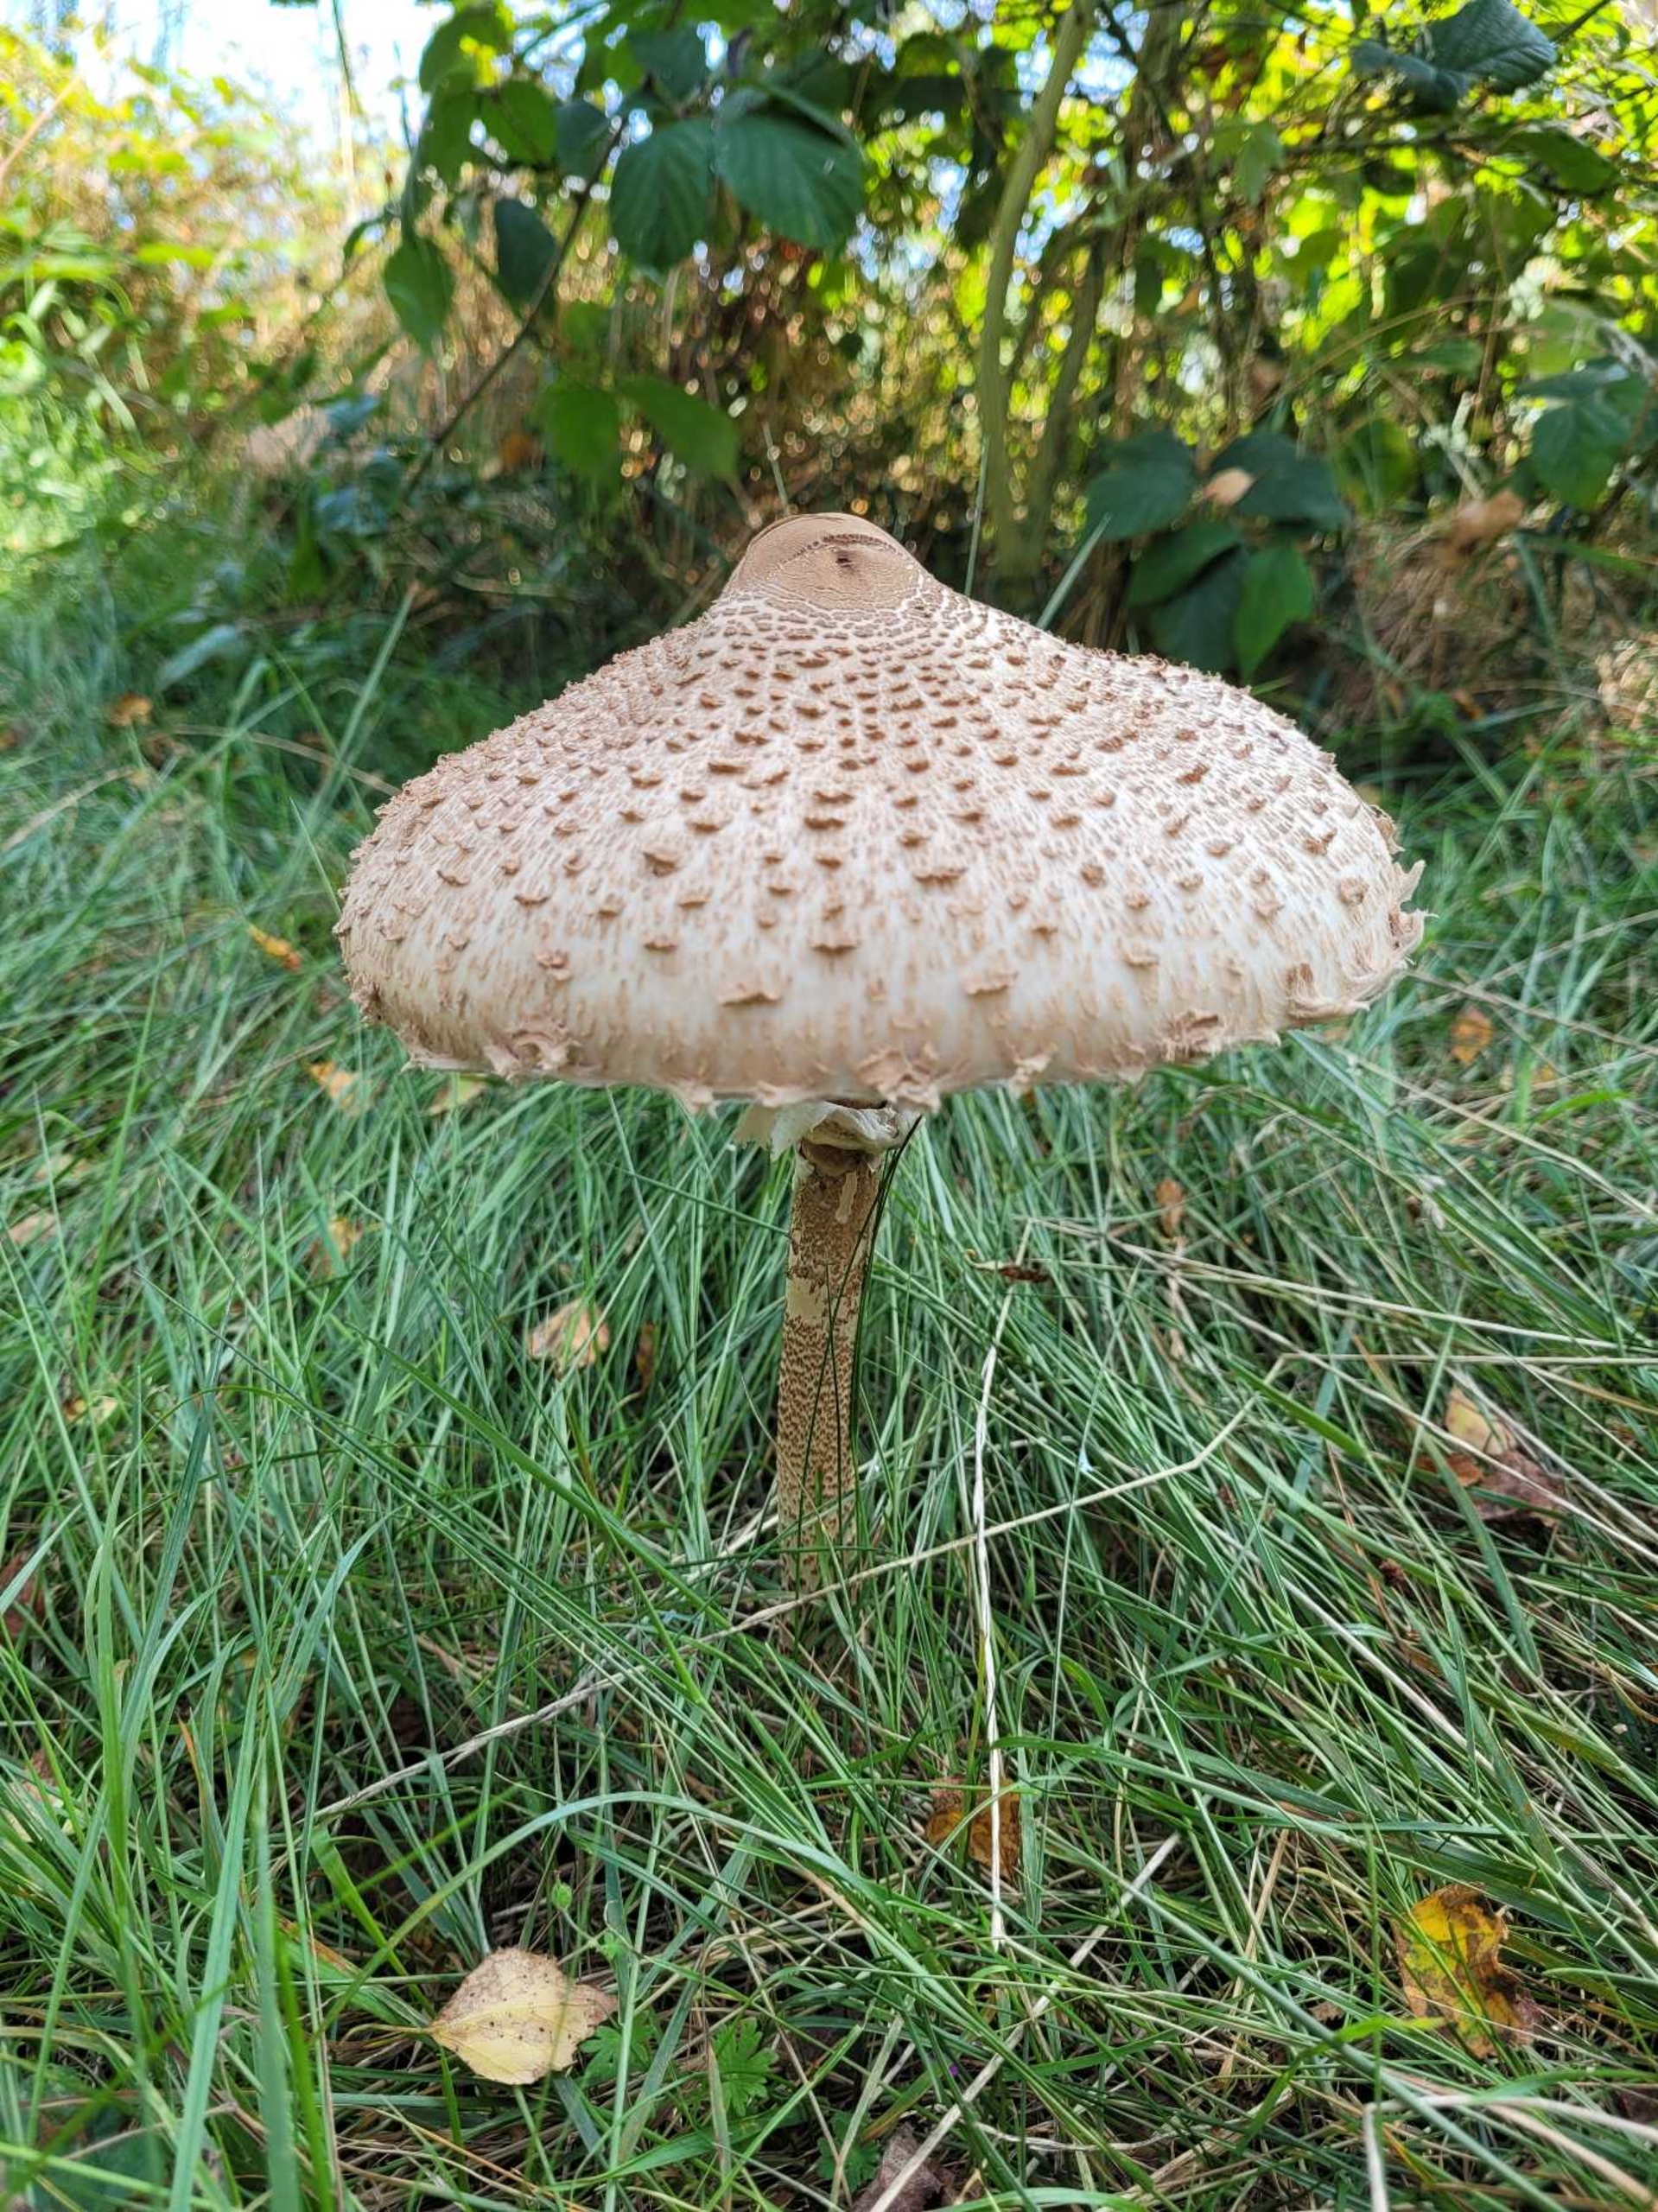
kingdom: Fungi
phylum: Basidiomycota
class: Agaricomycetes
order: Agaricales
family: Agaricaceae
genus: Macrolepiota
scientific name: Macrolepiota procera
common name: Stor kæmpeparasolhat
